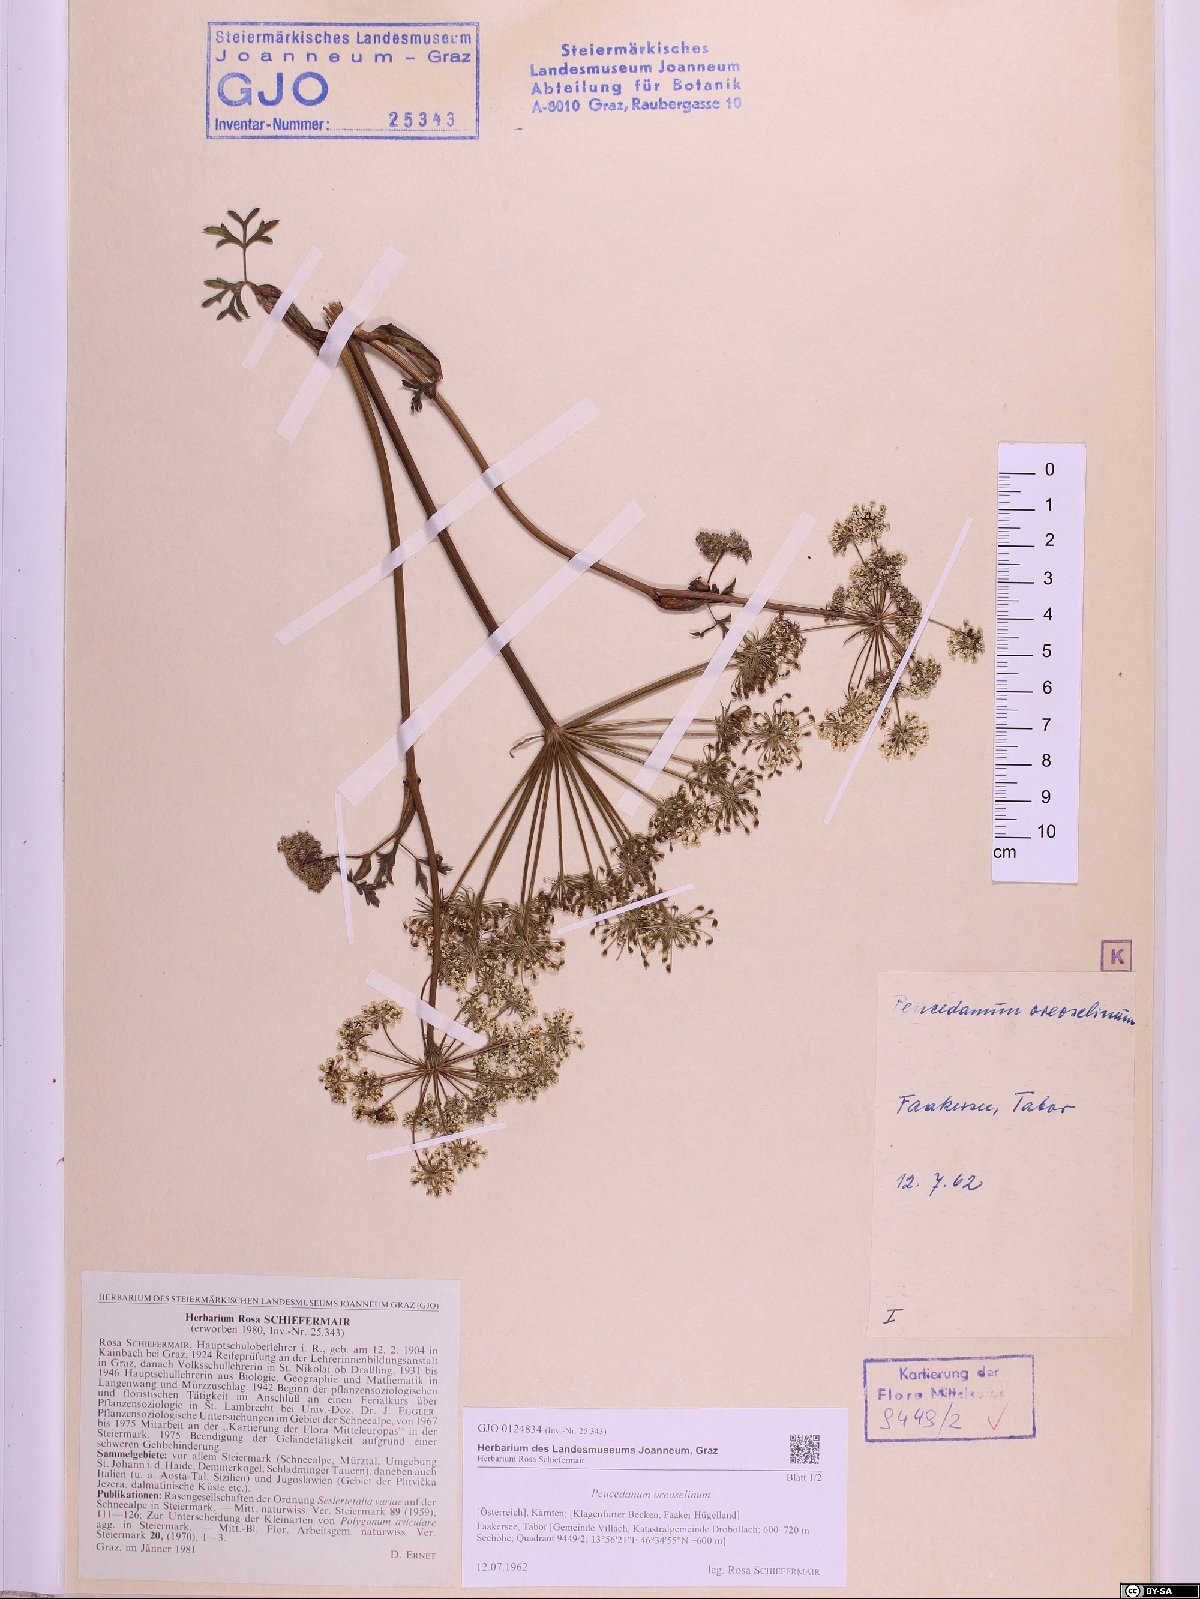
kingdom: Plantae
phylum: Tracheophyta
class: Magnoliopsida
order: Apiales
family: Apiaceae
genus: Oreoselinum
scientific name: Oreoselinum nigrum
